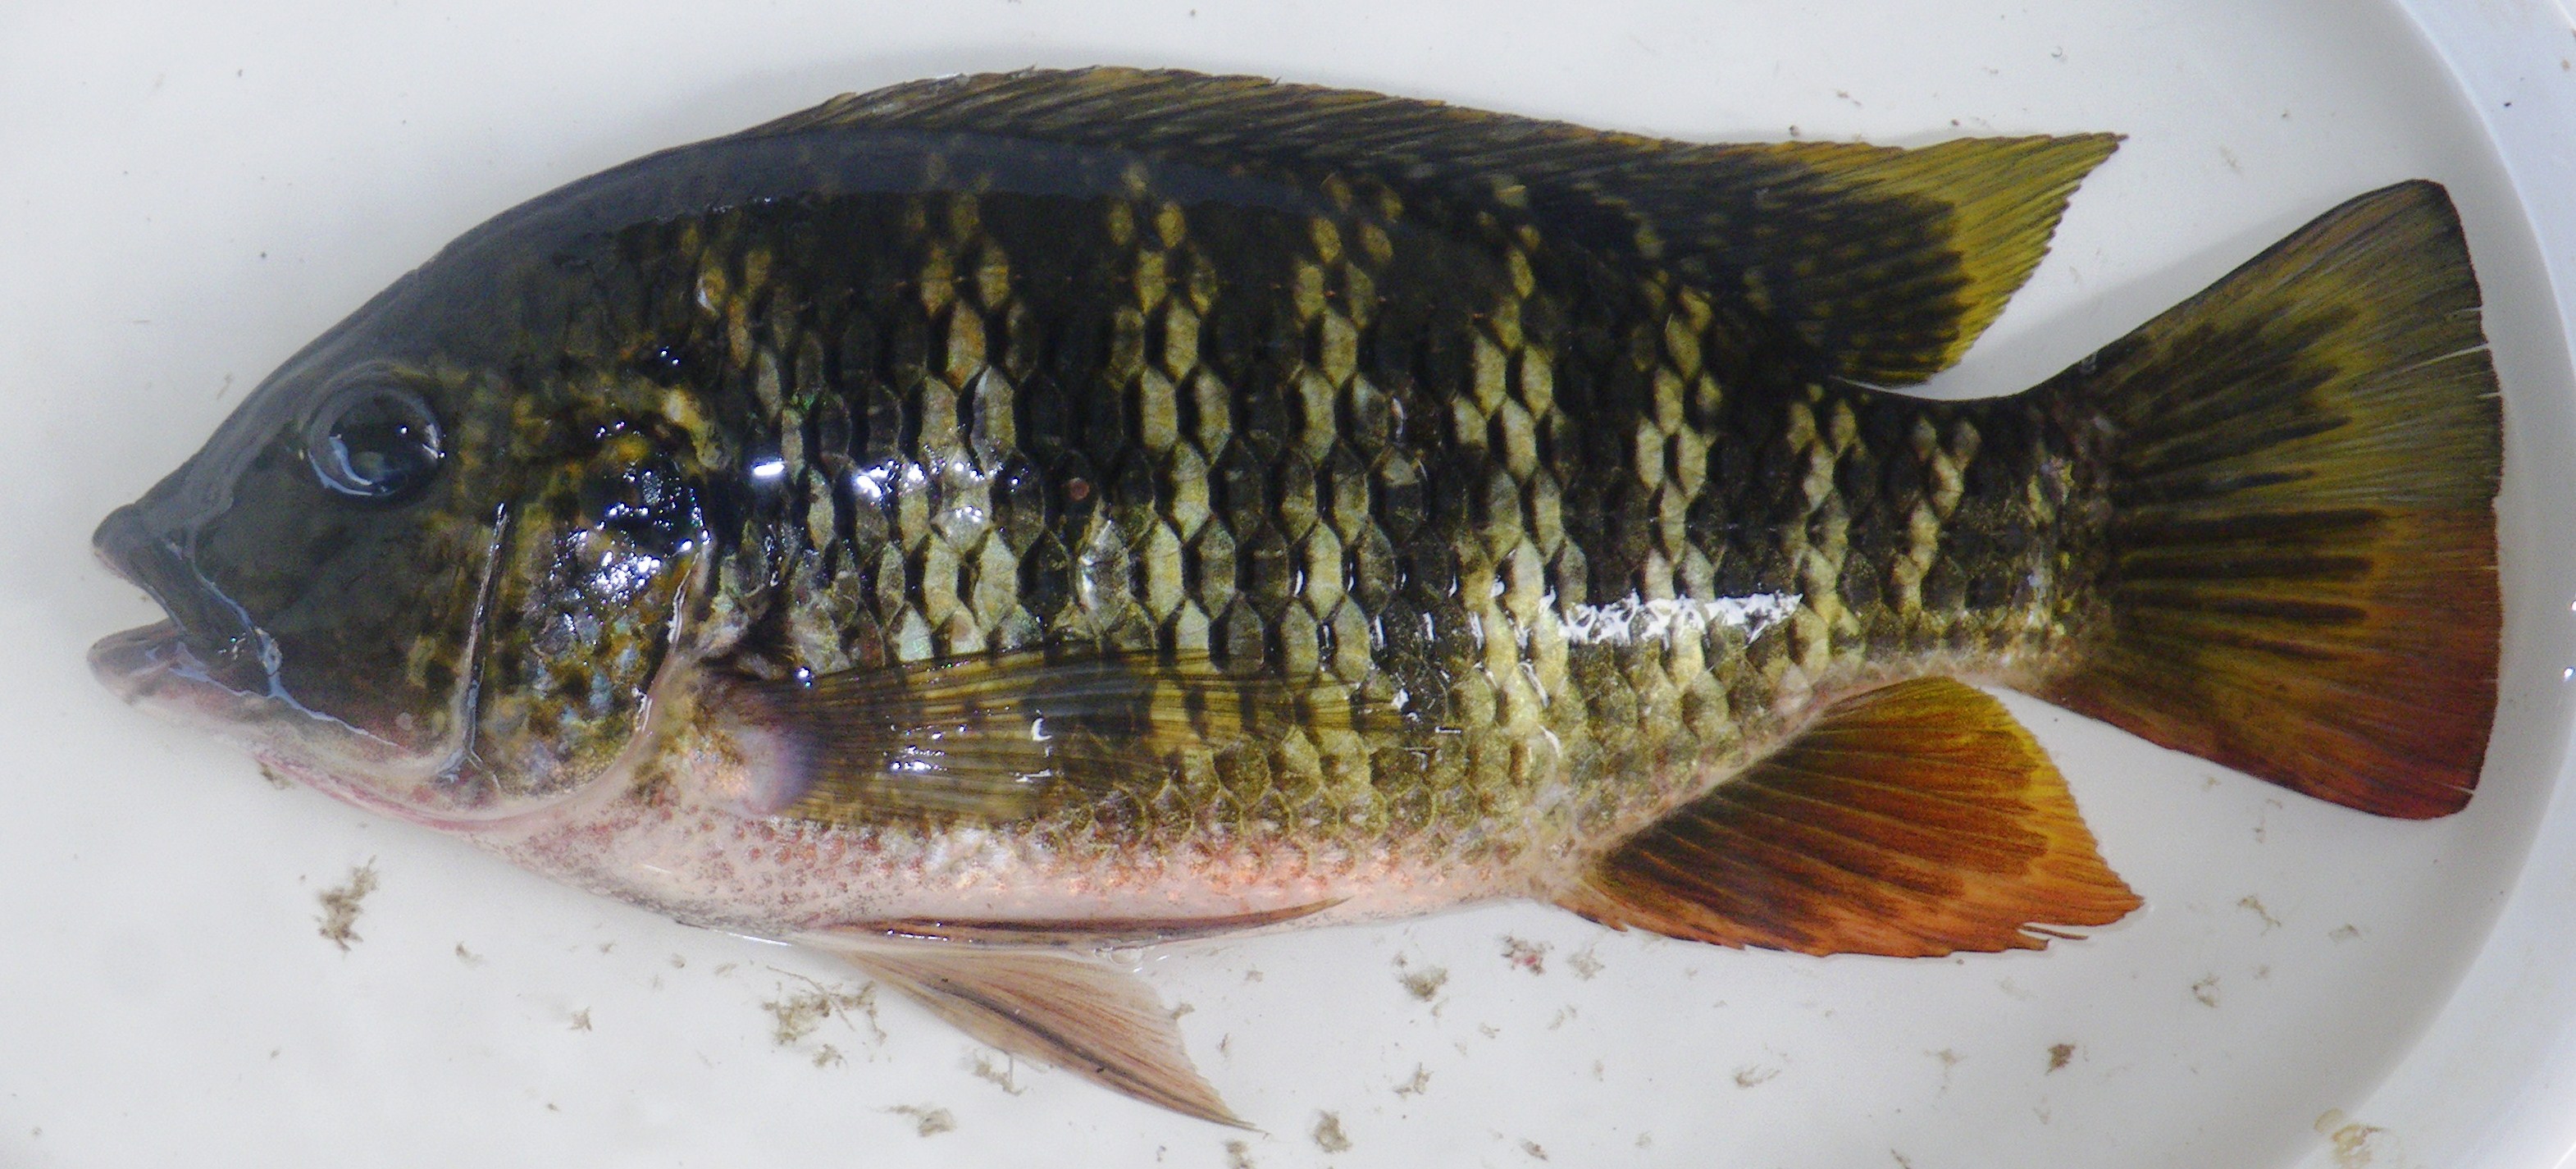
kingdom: Animalia
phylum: Chordata
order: Perciformes
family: Cichlidae
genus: Coptodon
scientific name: Coptodon rendalli
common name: Redbreast tilapia
